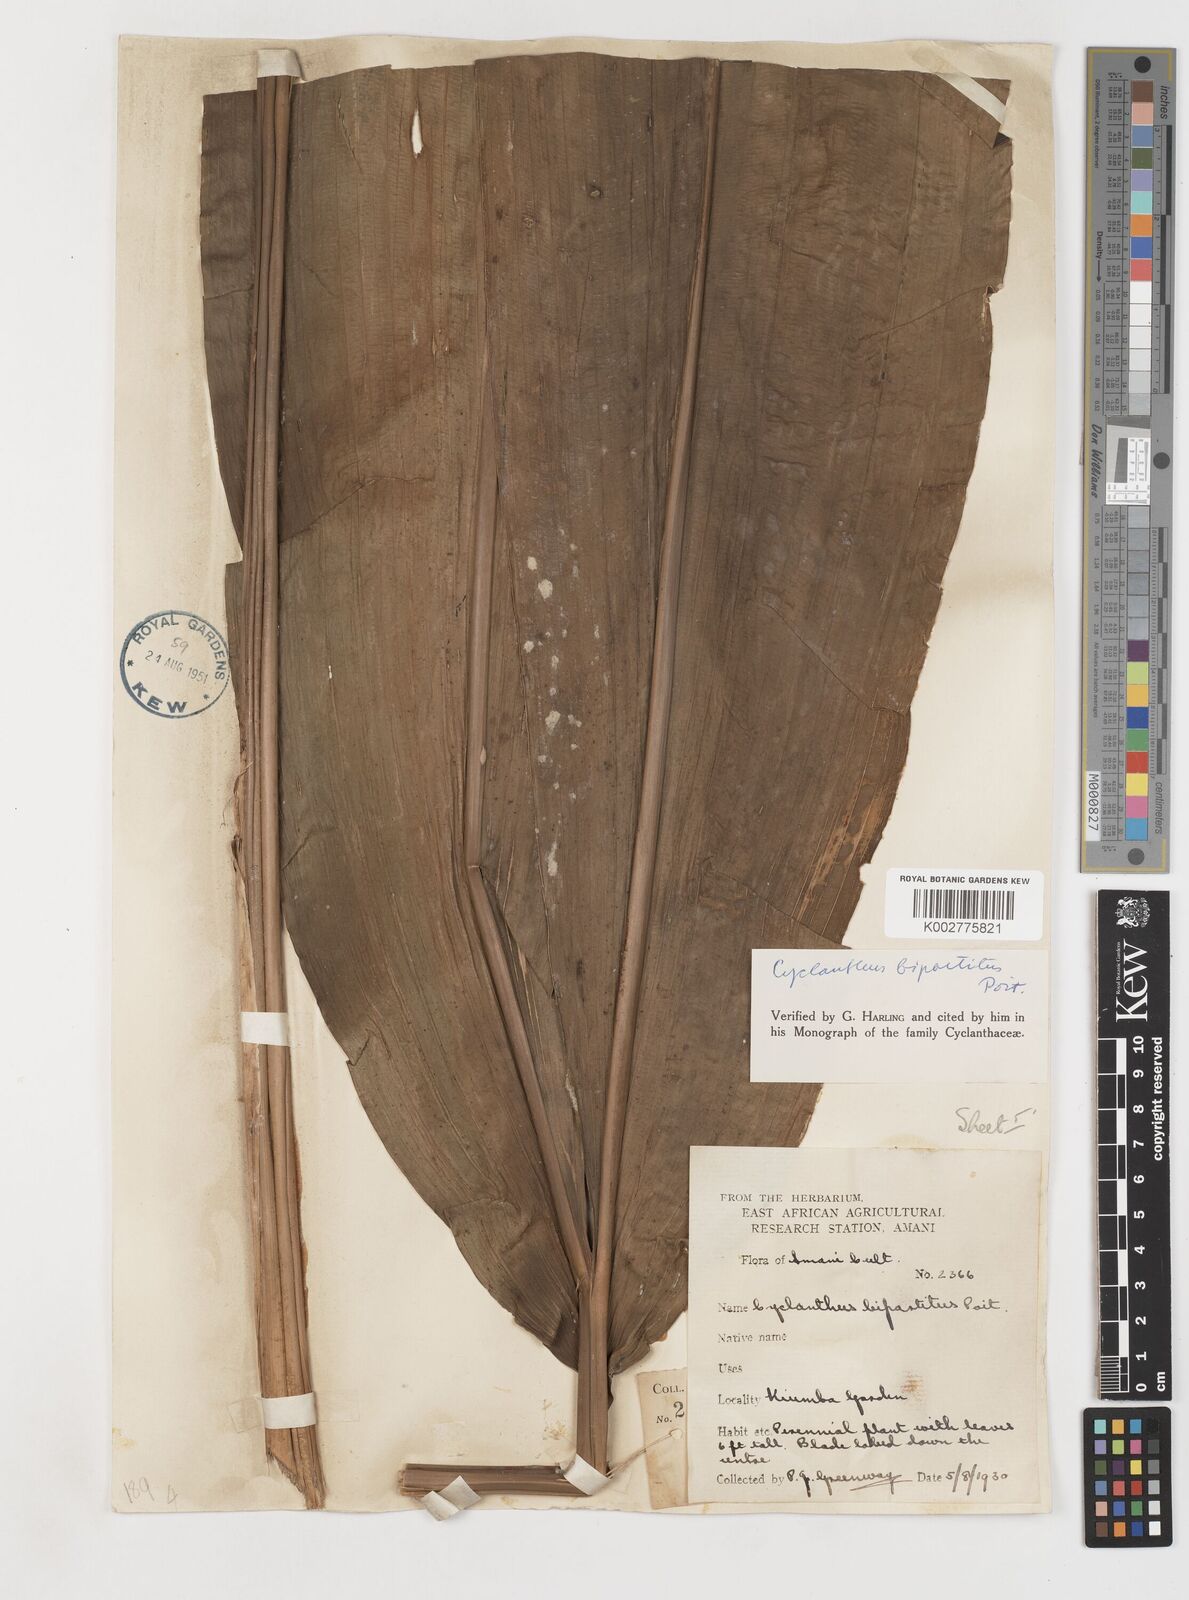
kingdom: Plantae
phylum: Tracheophyta
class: Liliopsida
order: Pandanales
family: Cyclanthaceae
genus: Cyclanthus
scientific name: Cyclanthus bipartitus
